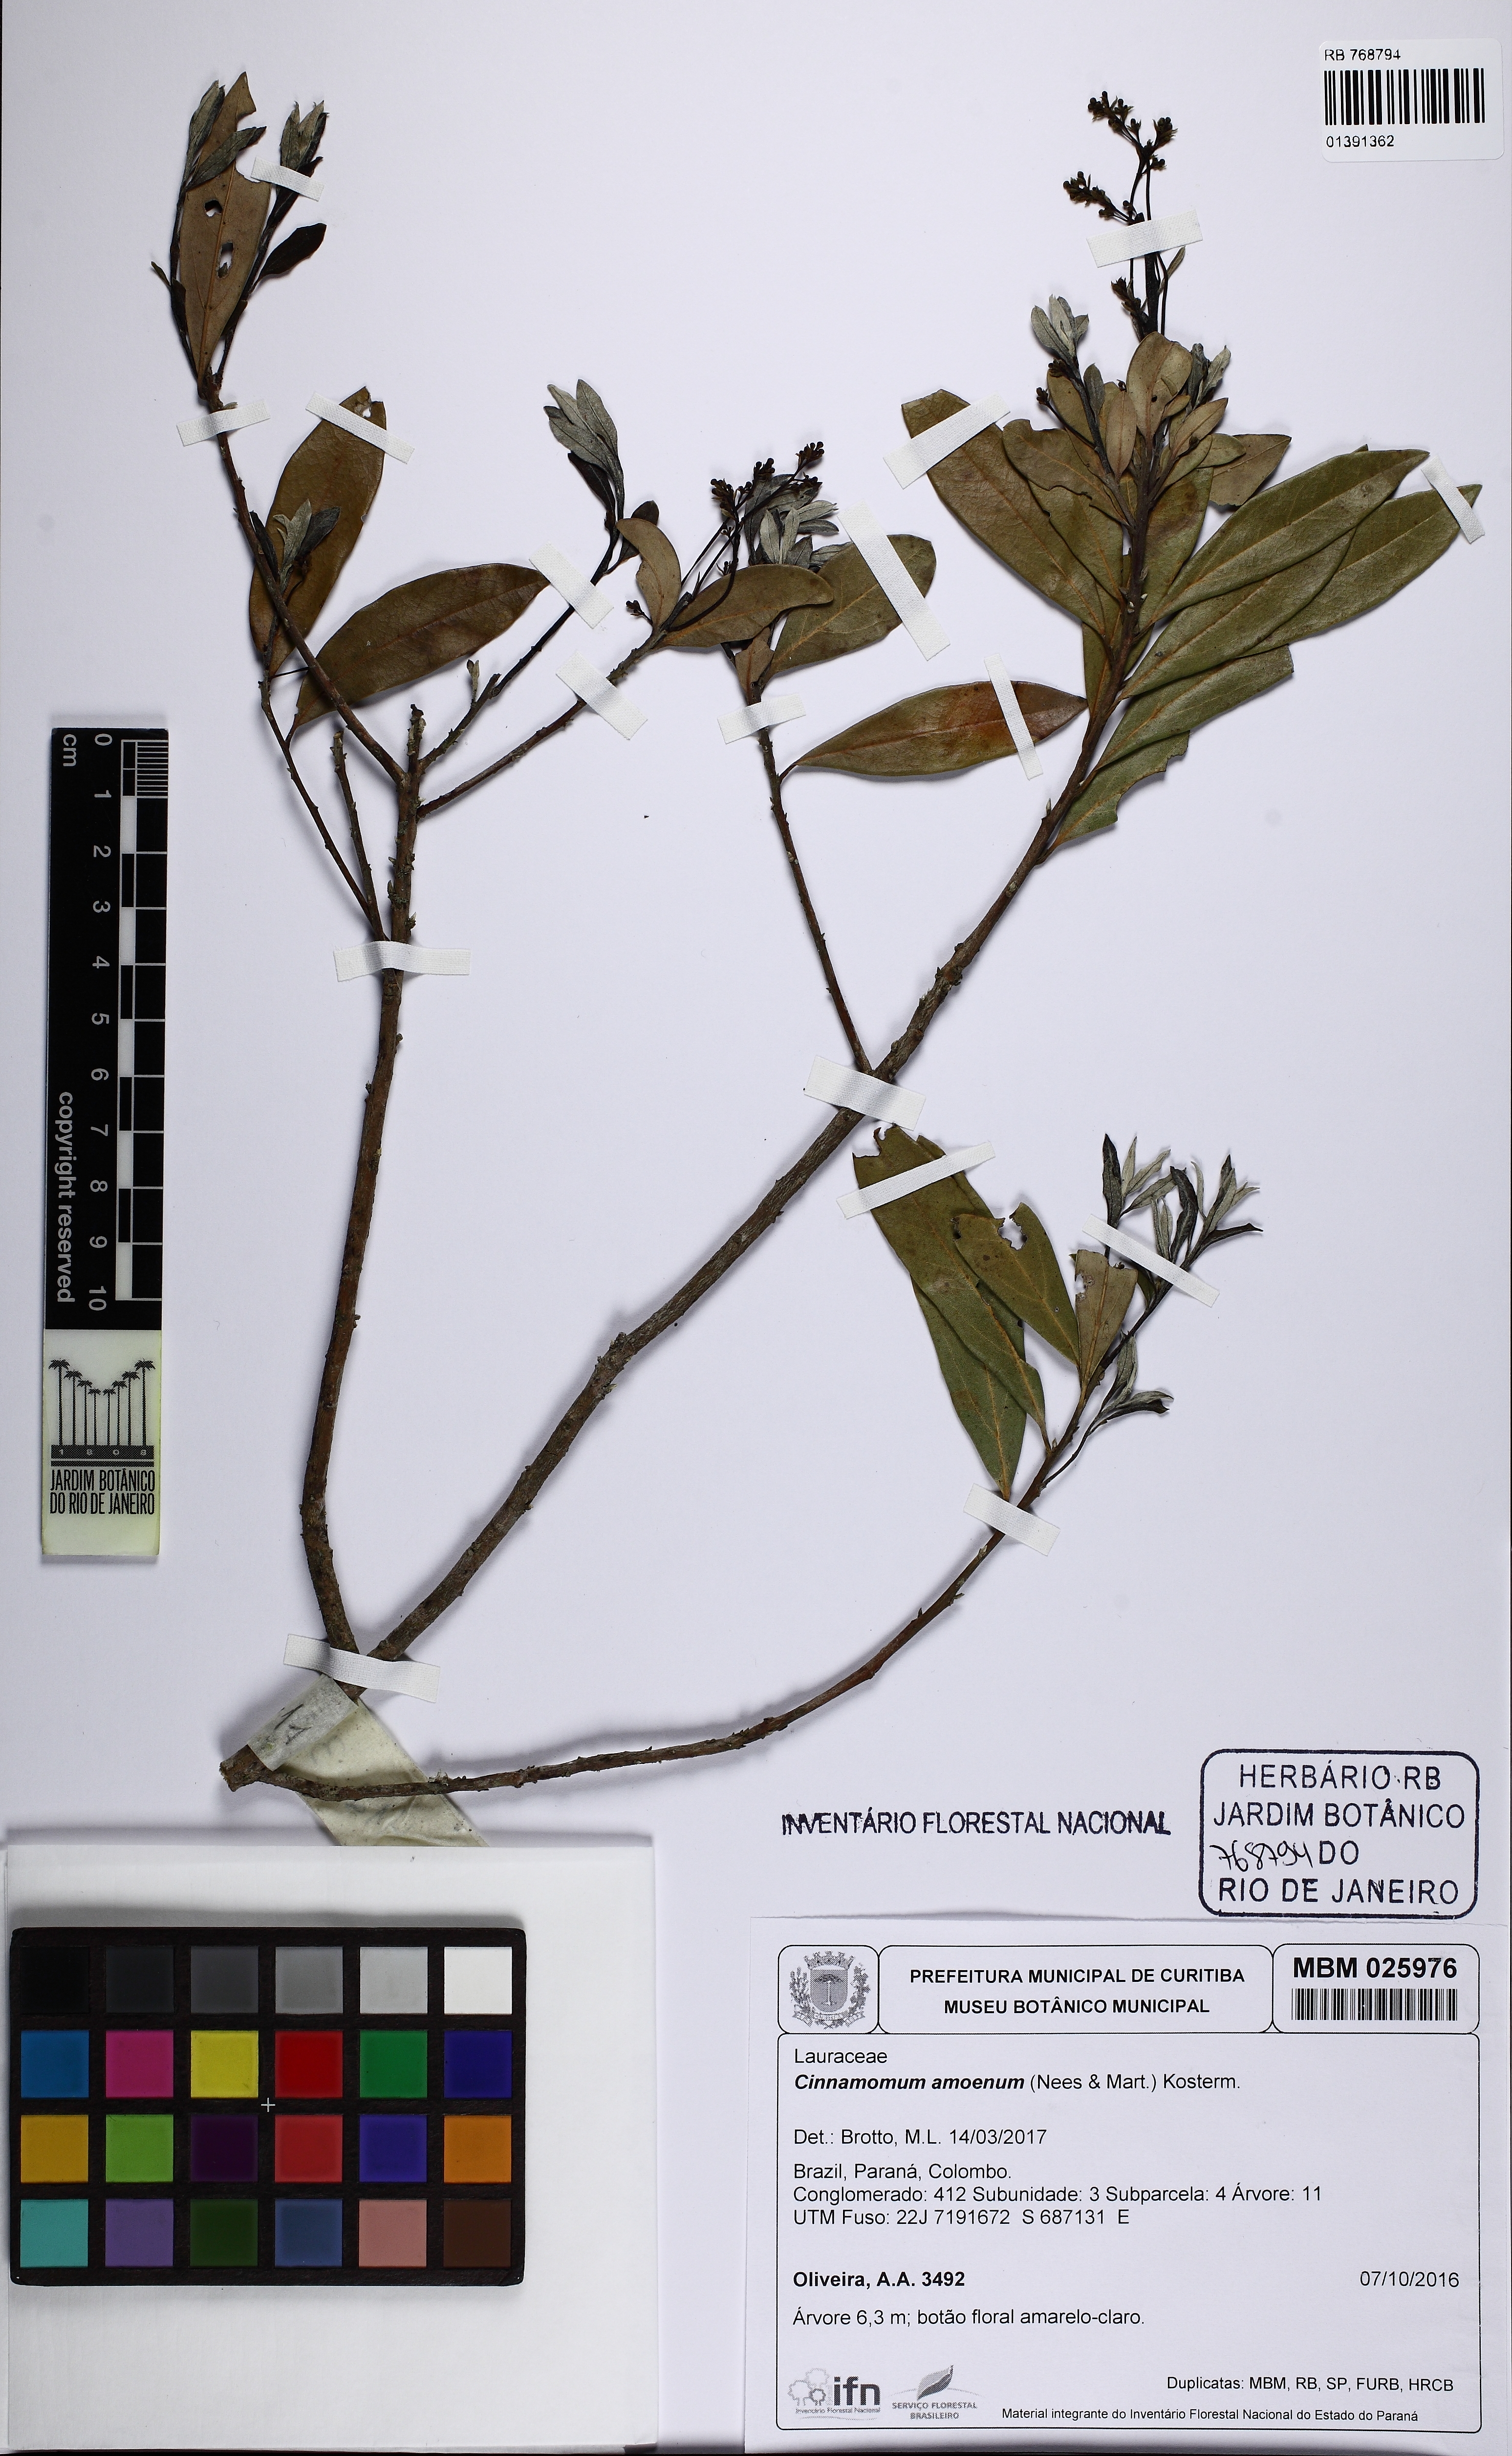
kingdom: Plantae
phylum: Tracheophyta
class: Magnoliopsida
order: Laurales
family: Lauraceae
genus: Aiouea
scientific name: Aiouea amoena
